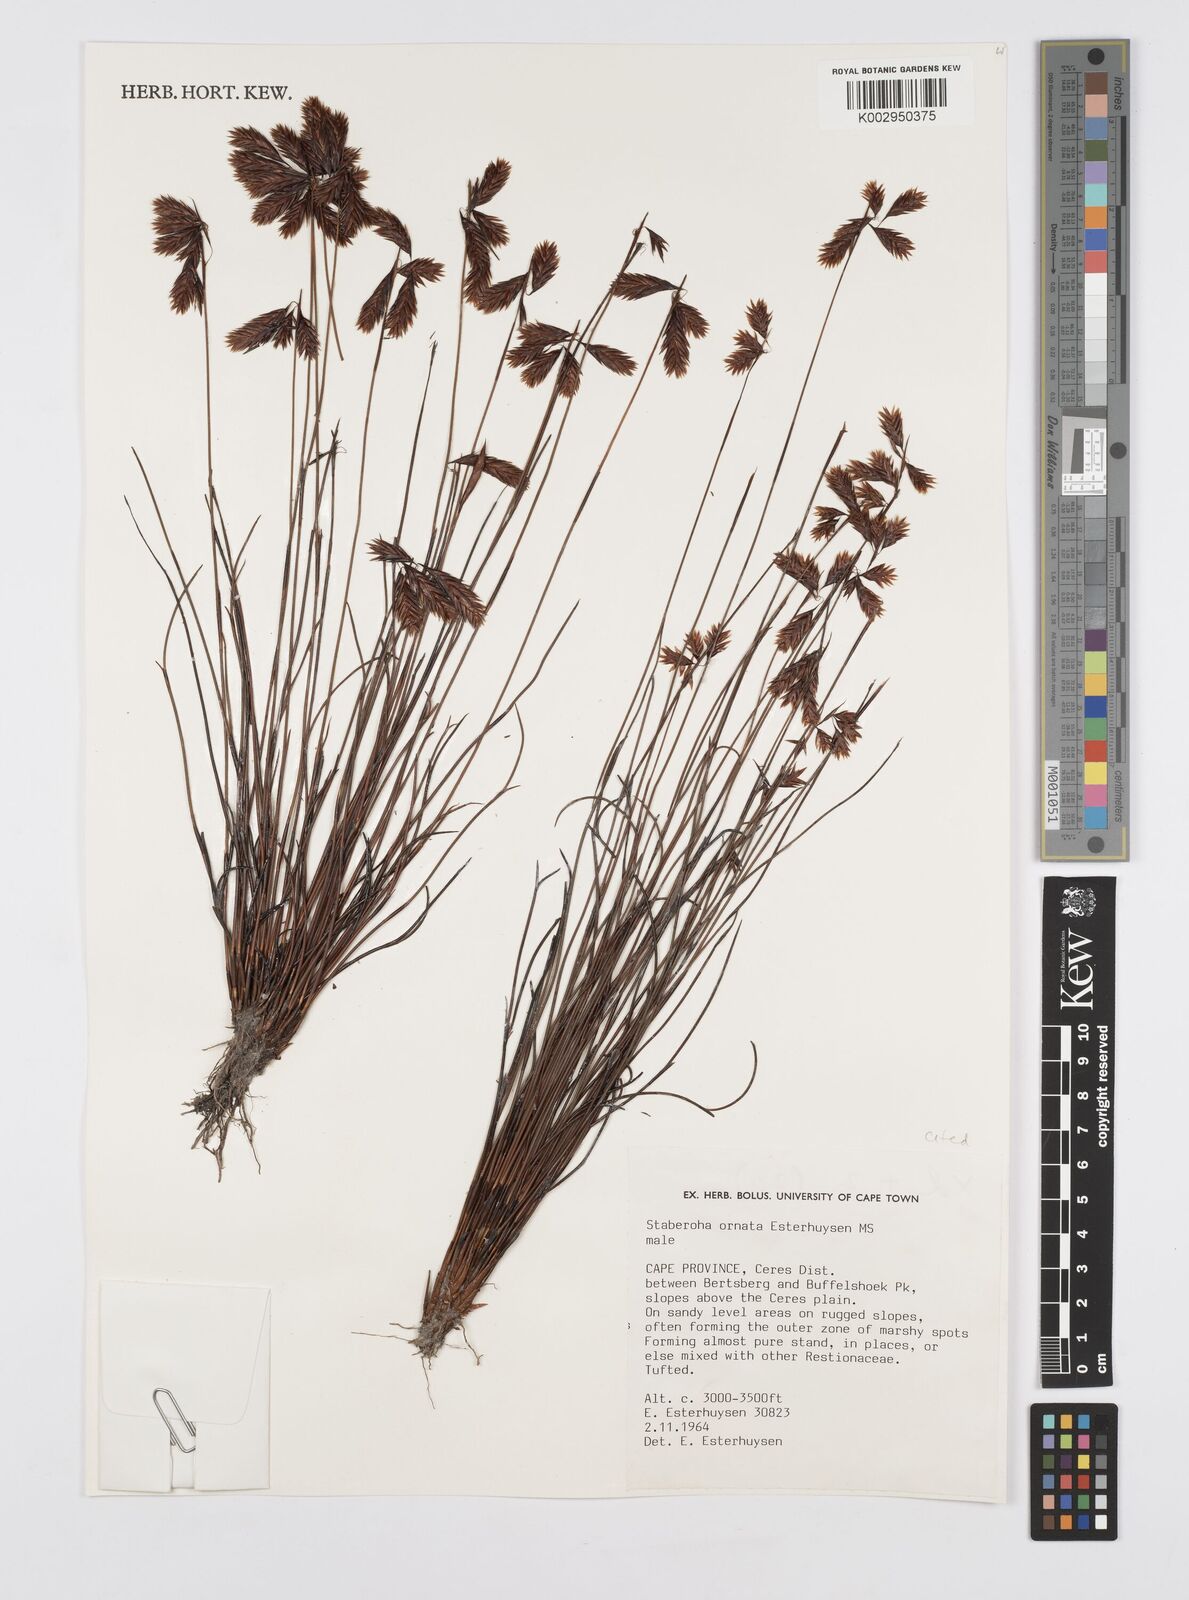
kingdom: Plantae
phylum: Tracheophyta
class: Liliopsida
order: Poales
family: Restionaceae
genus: Staberoha
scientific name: Staberoha ornata
